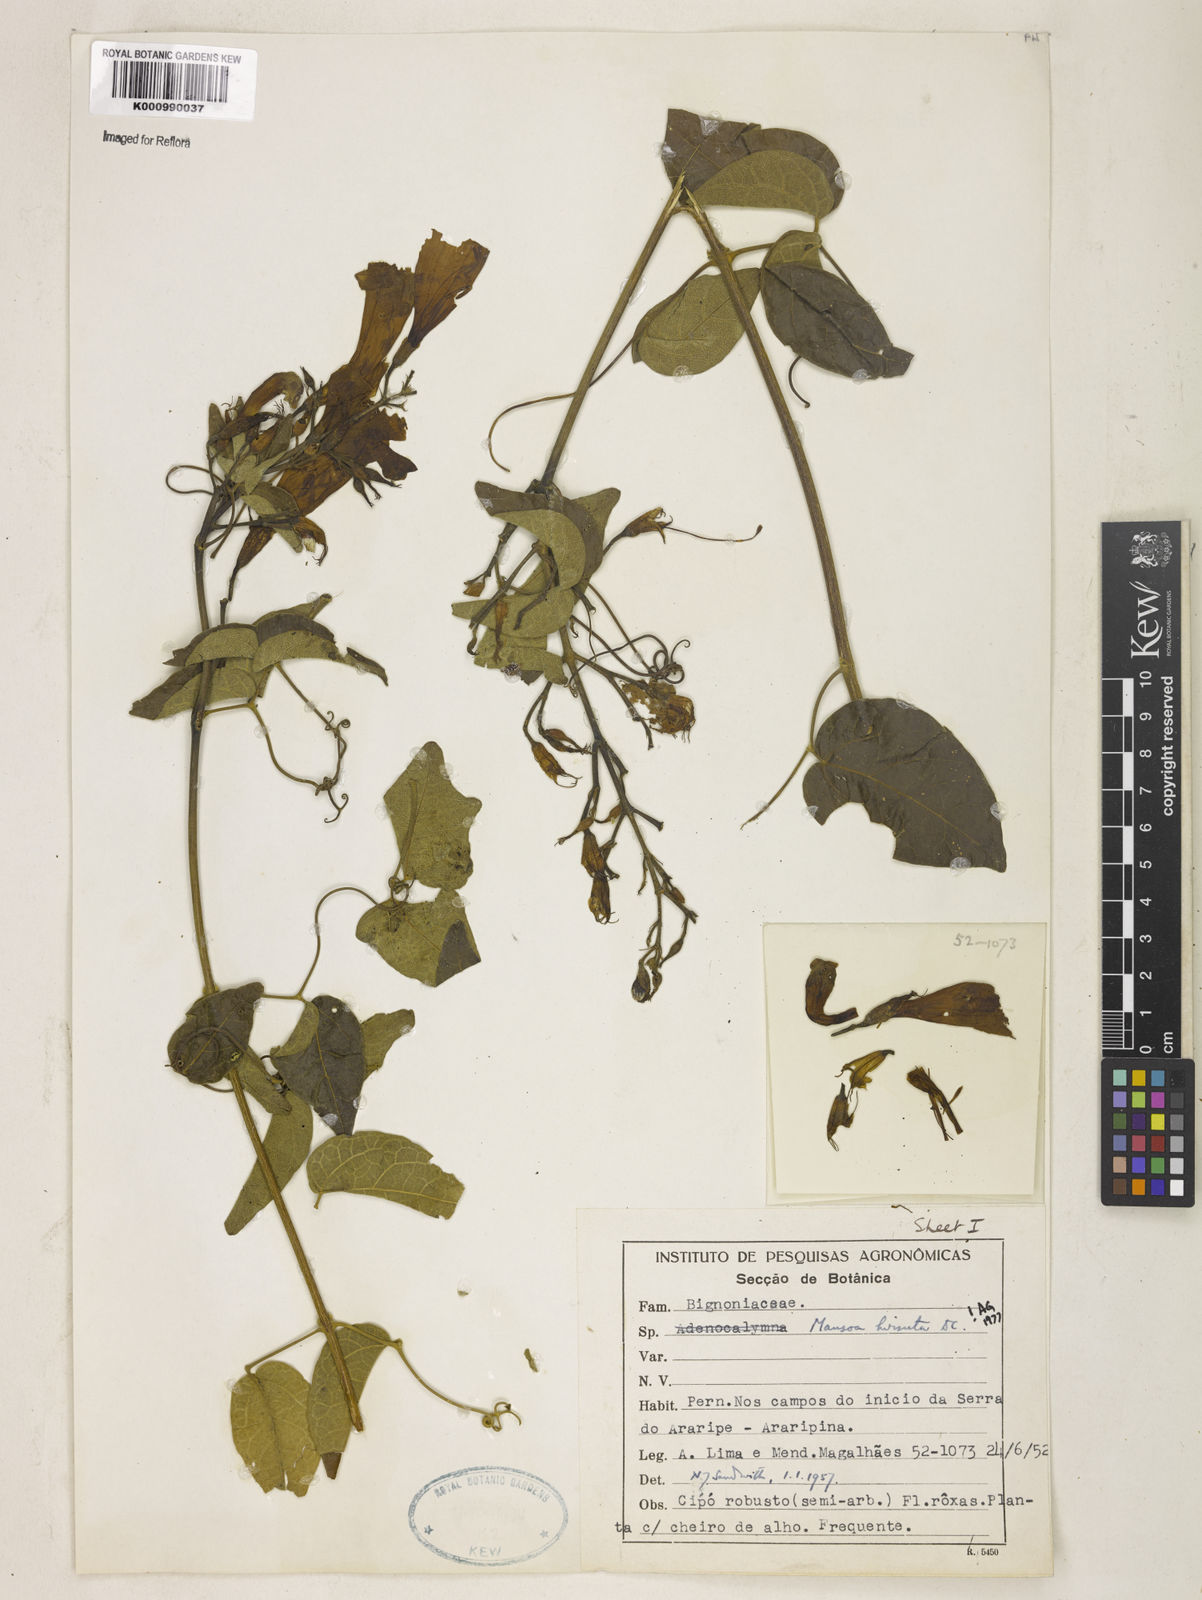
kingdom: Plantae
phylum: Tracheophyta
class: Magnoliopsida
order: Lamiales
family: Bignoniaceae
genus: Mansoa
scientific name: Mansoa hirsuta
